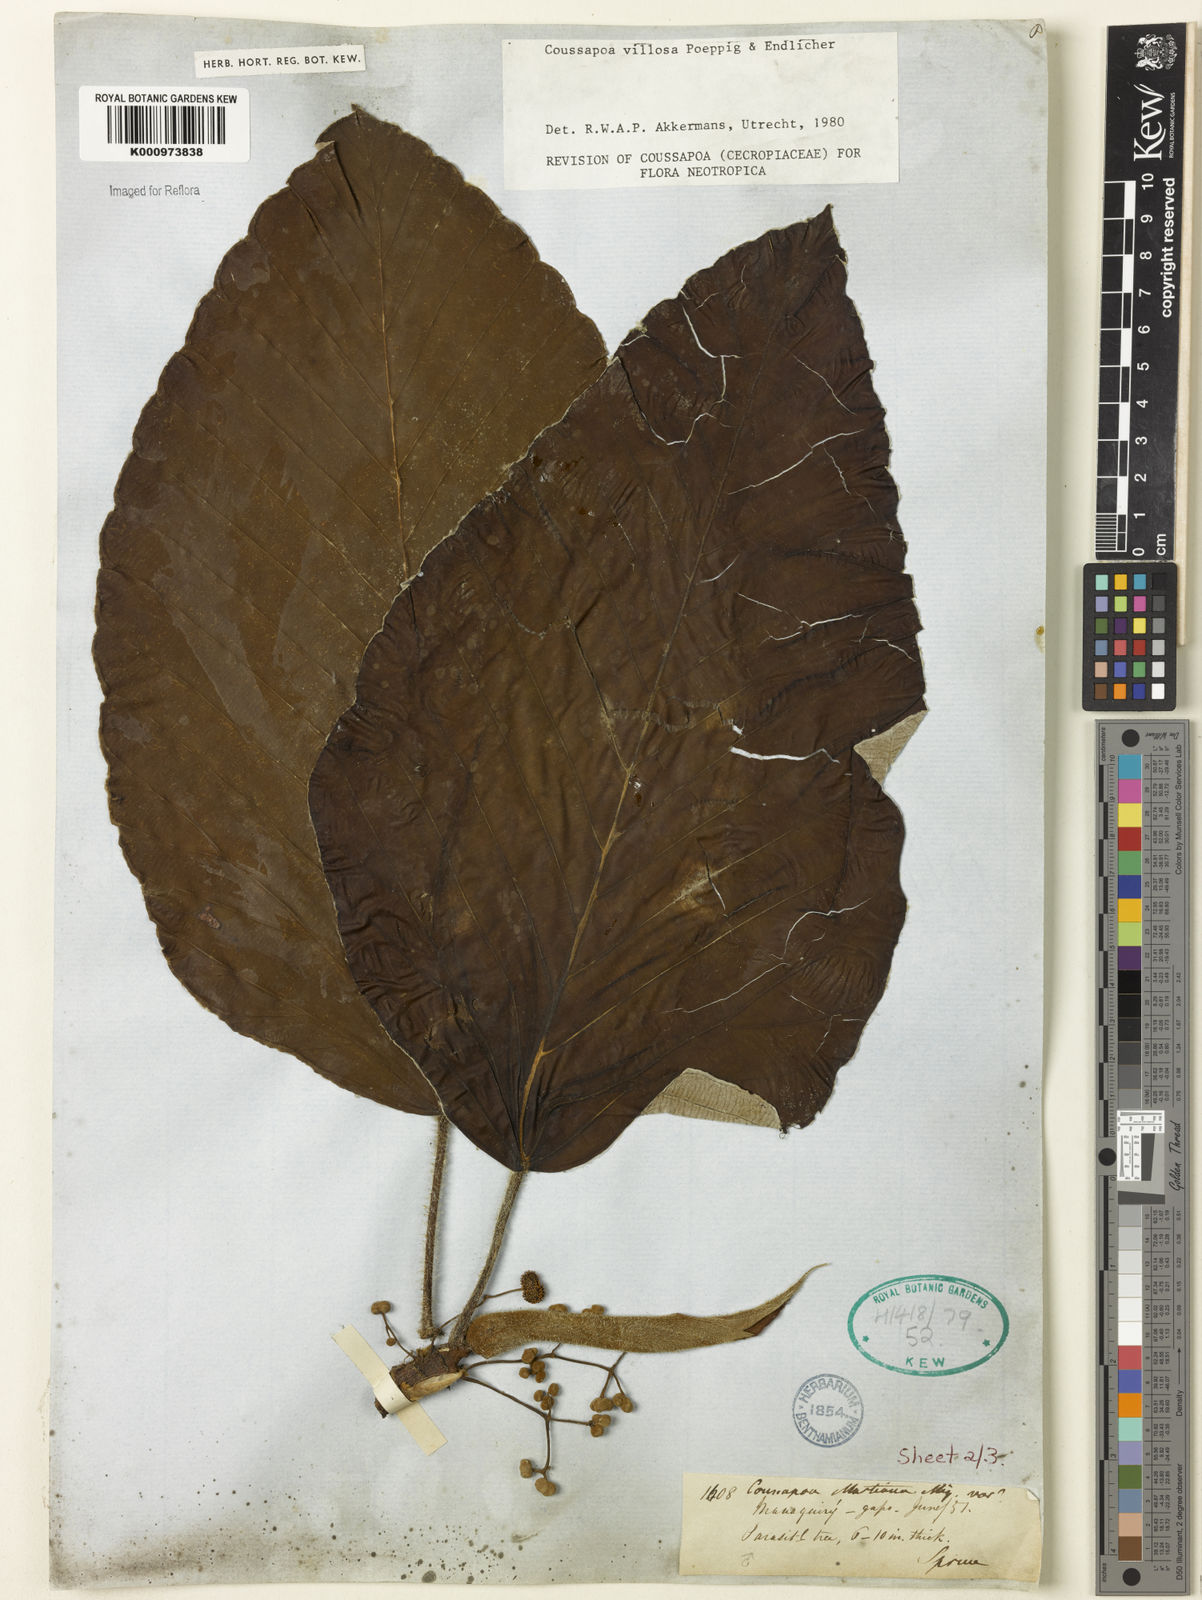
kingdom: Plantae
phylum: Tracheophyta
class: Magnoliopsida
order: Rosales
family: Urticaceae
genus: Coussapoa
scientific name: Coussapoa villosa
